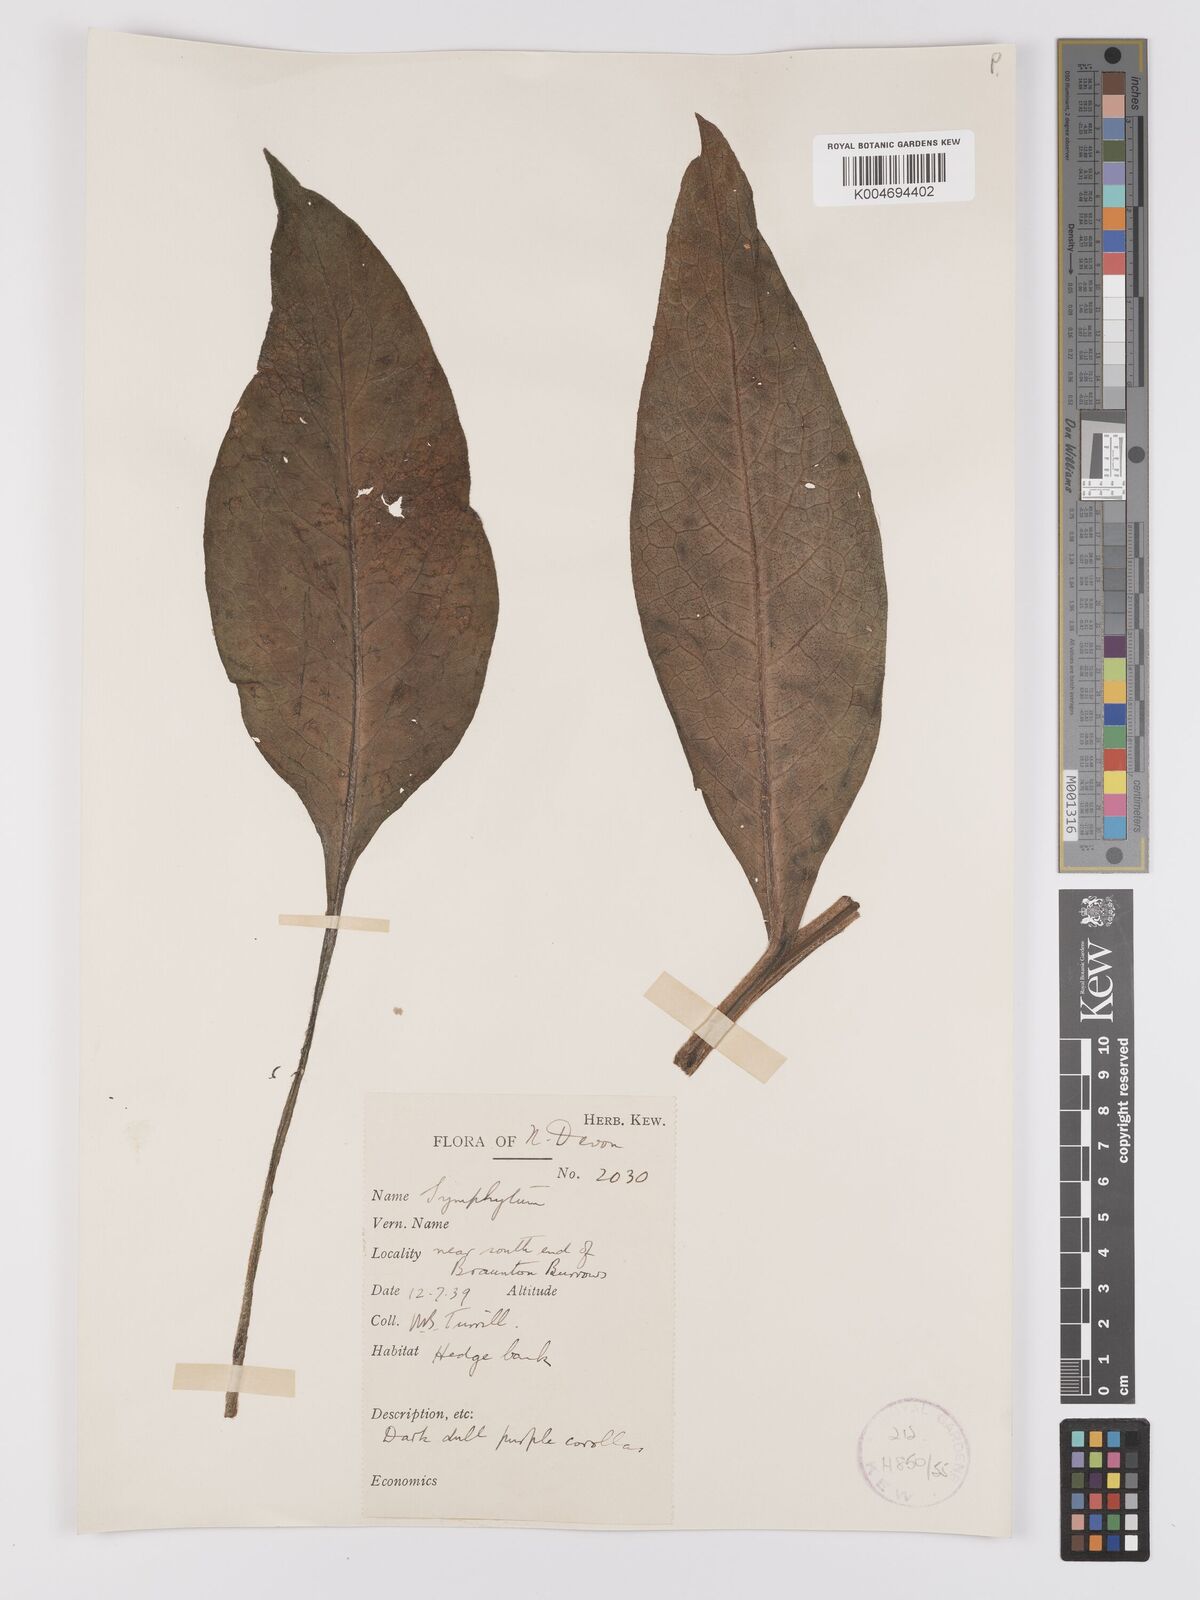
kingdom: Plantae
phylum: Tracheophyta
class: Magnoliopsida
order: Boraginales
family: Boraginaceae
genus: Symphytum
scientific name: Symphytum officinale
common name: Common comfrey
